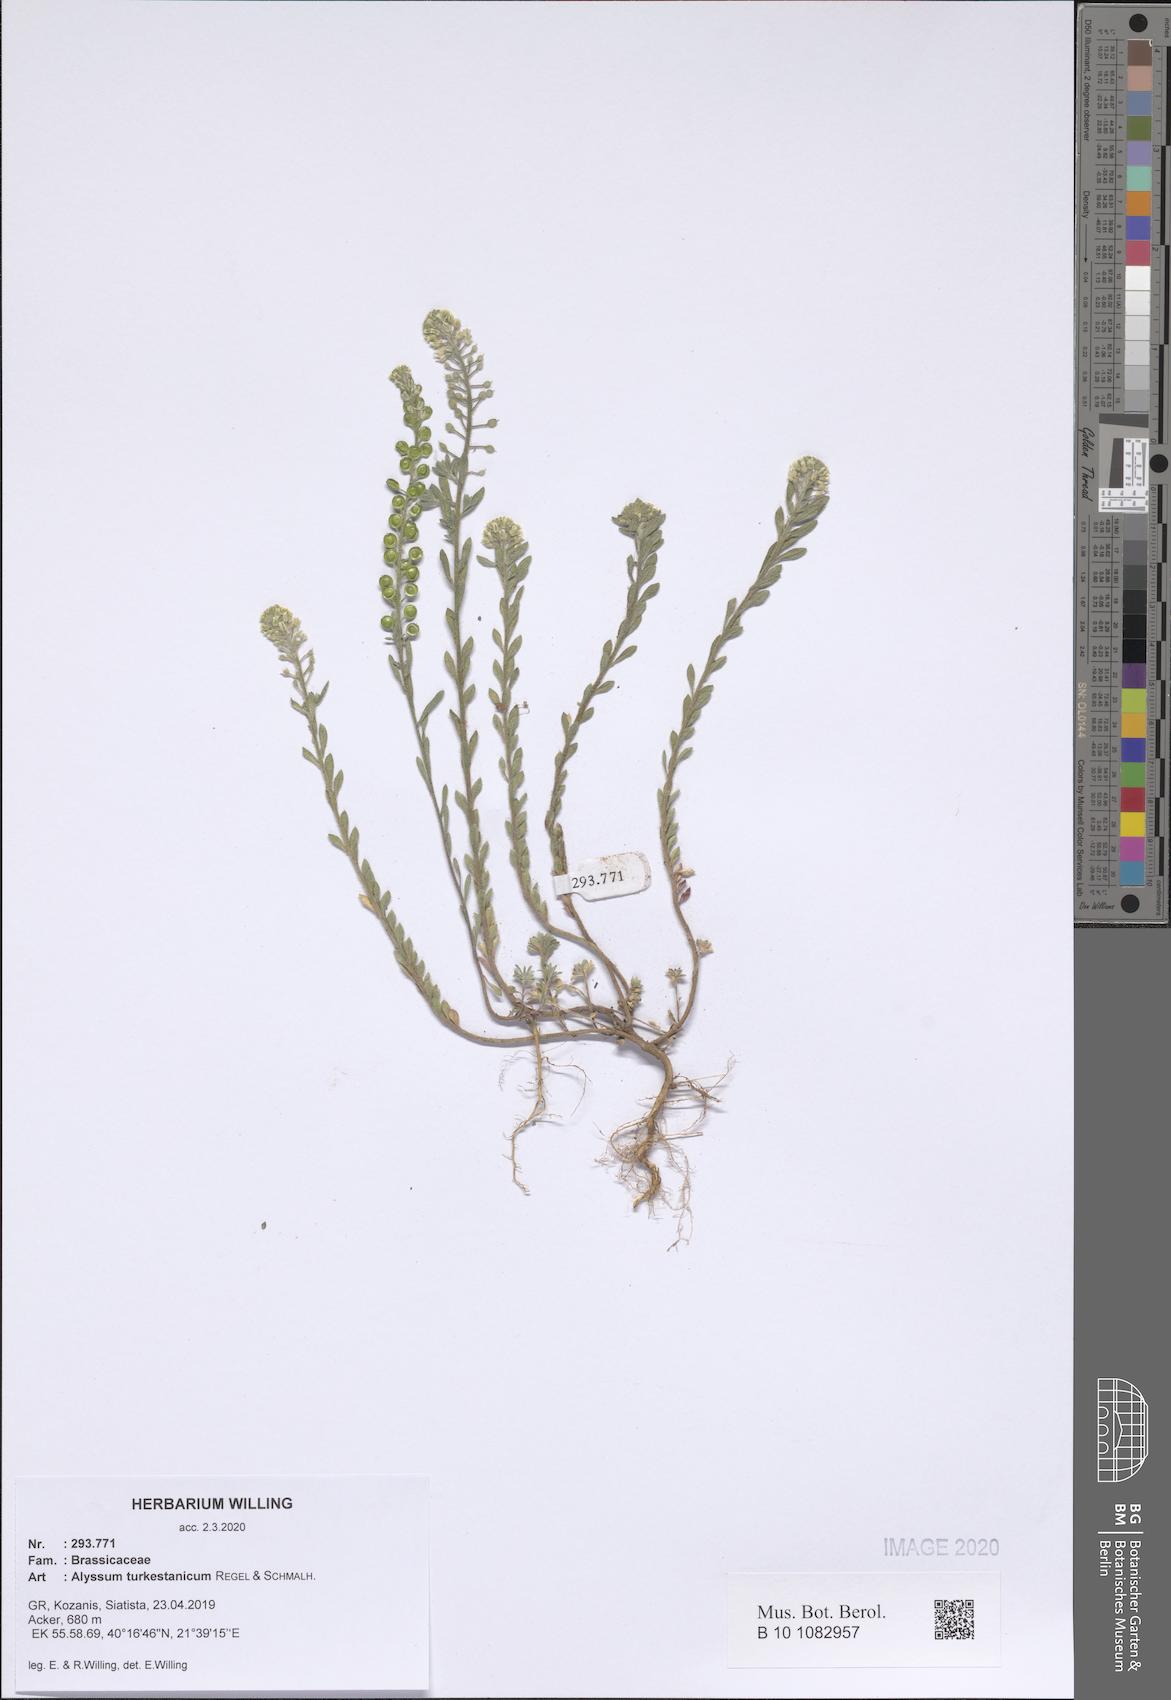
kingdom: Plantae
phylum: Tracheophyta
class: Magnoliopsida
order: Brassicales
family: Brassicaceae
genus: Alyssum
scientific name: Alyssum turkestanicum
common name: Desert alyssum
